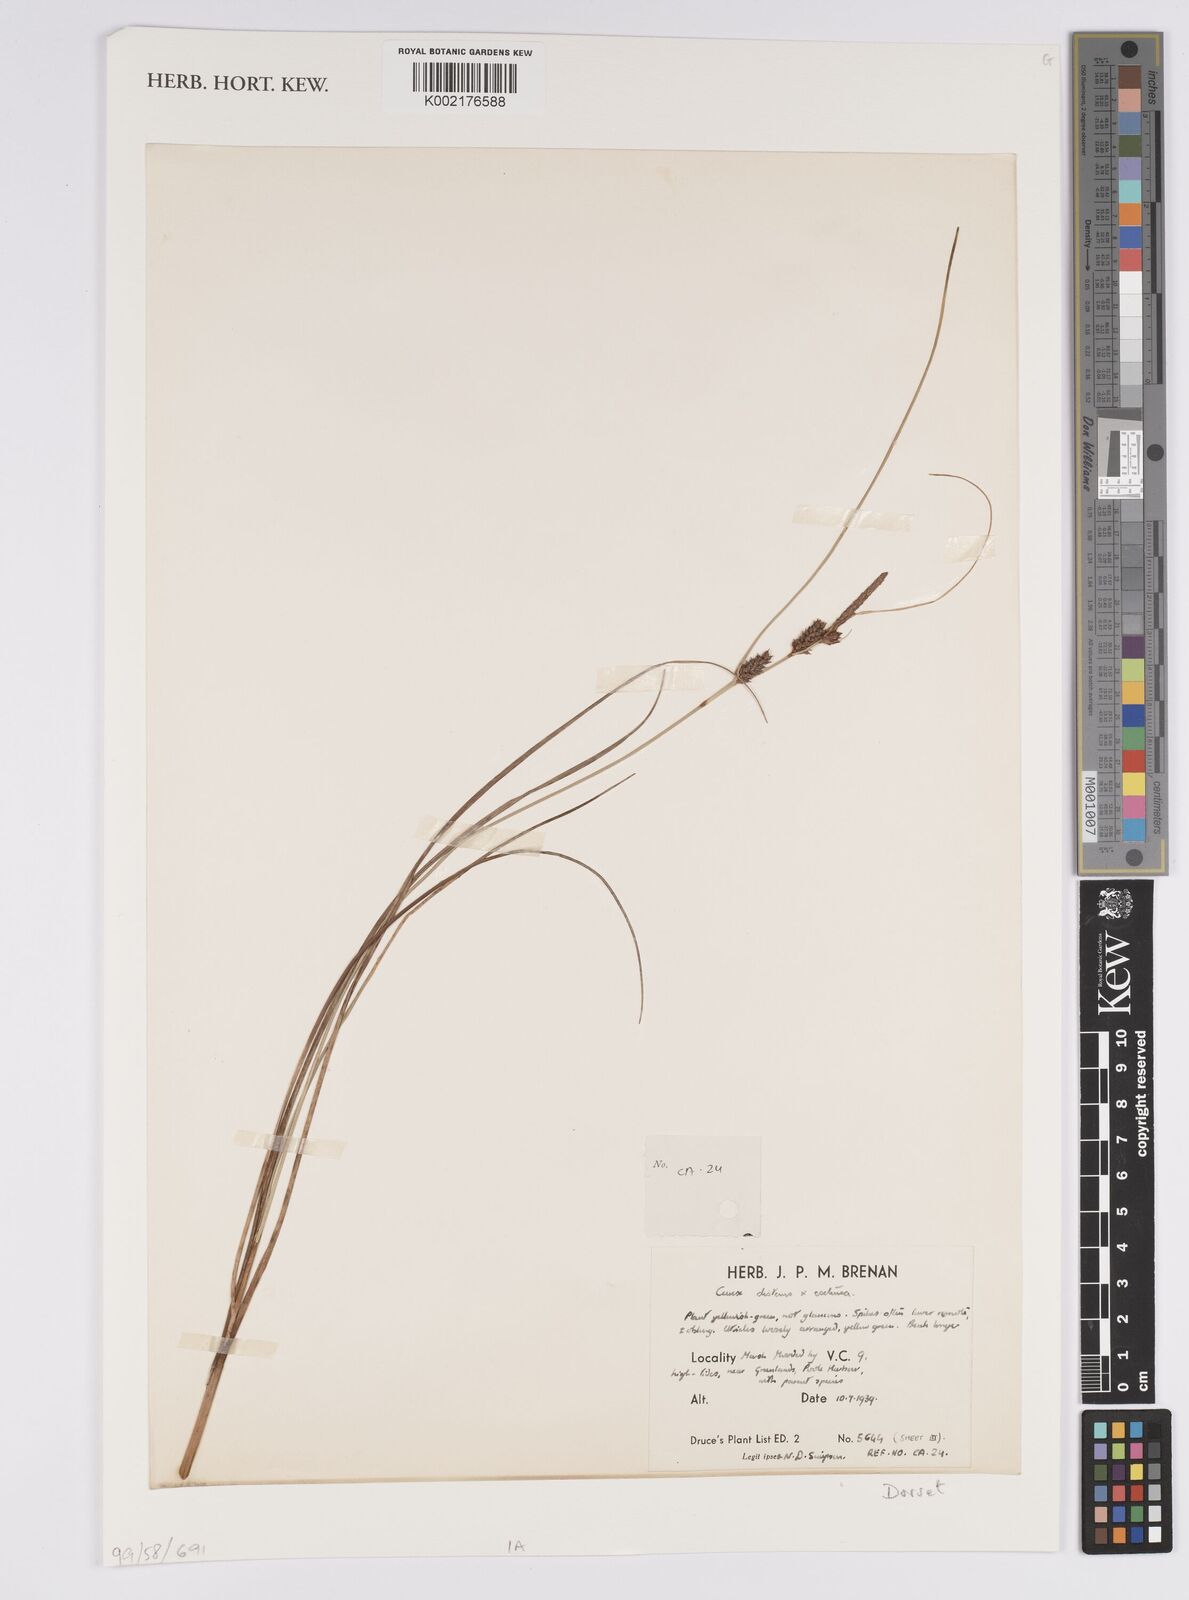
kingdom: Plantae
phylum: Tracheophyta
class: Liliopsida
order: Poales
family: Cyperaceae
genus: Carex
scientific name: Carex distans
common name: Distant sedge
